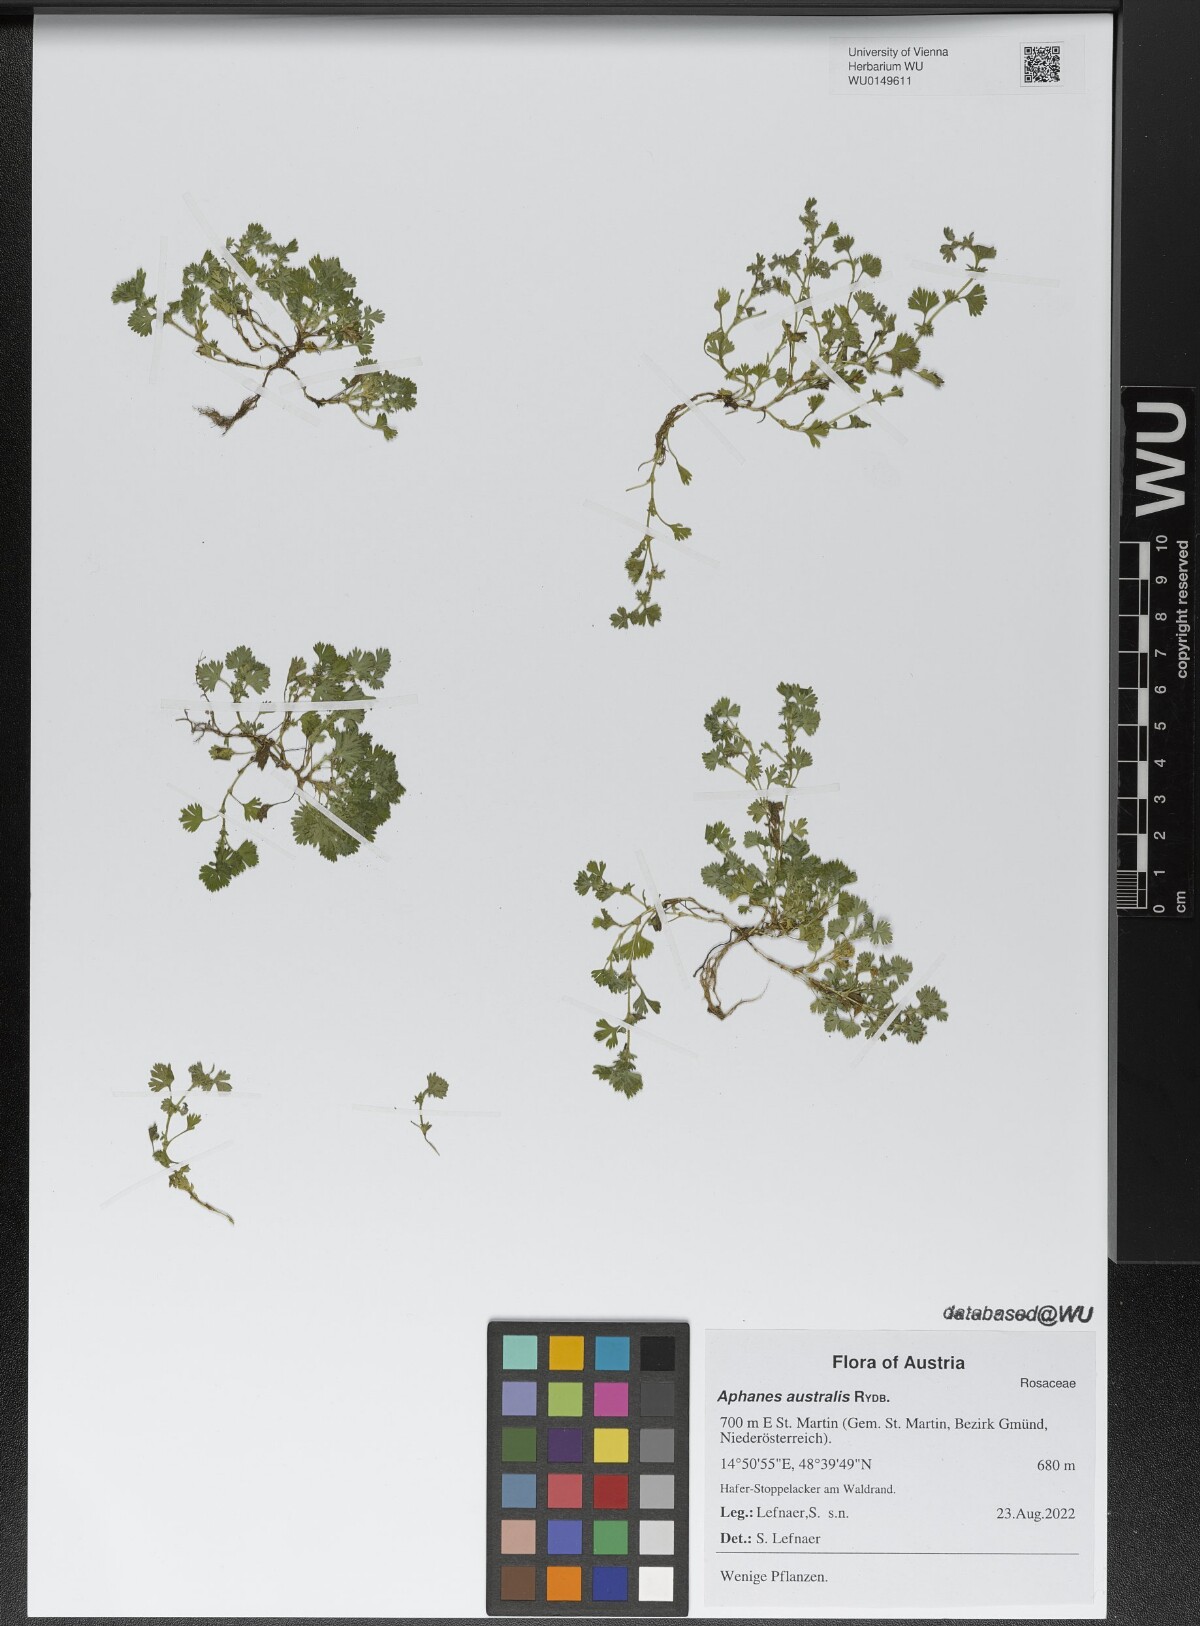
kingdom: Plantae
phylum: Tracheophyta
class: Magnoliopsida
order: Rosales
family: Rosaceae
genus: Aphanes
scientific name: Aphanes australis
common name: Slender parsley-piert
